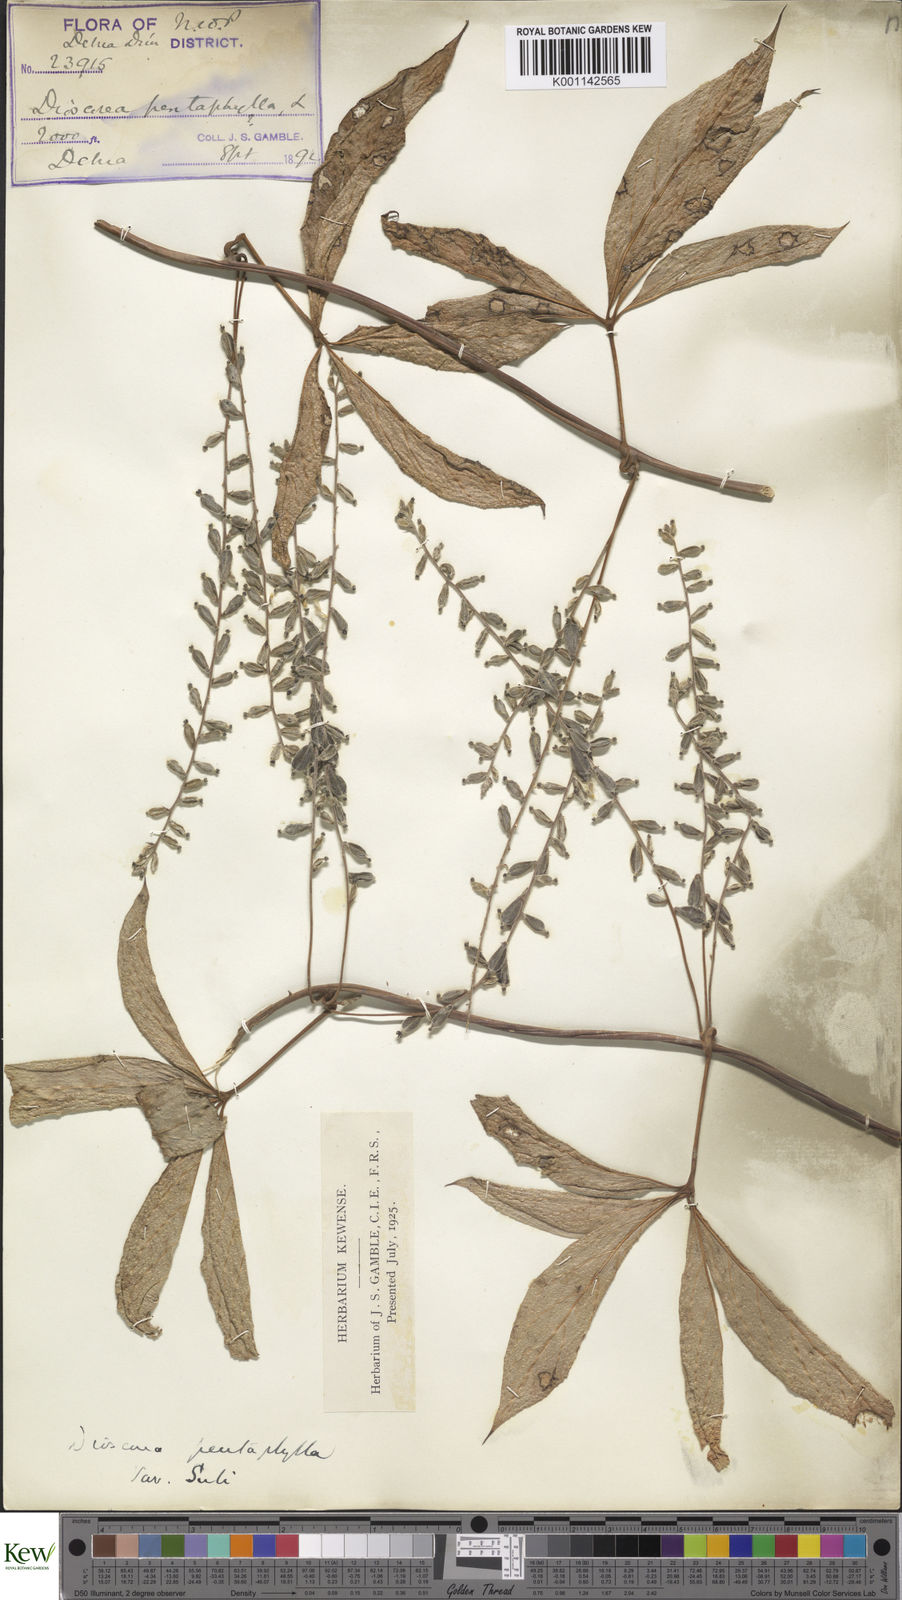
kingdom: Plantae
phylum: Tracheophyta
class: Liliopsida
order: Dioscoreales
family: Dioscoreaceae
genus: Dioscorea
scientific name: Dioscorea pentaphylla
